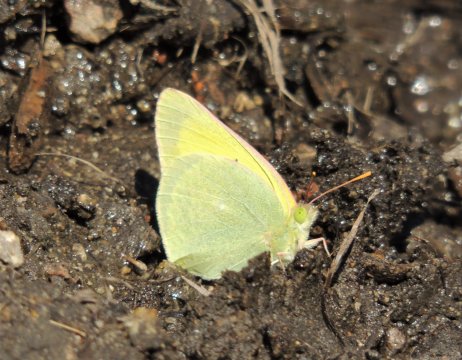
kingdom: Animalia
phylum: Arthropoda
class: Insecta
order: Lepidoptera
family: Pieridae
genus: Colias
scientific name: Colias alexandra
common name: Queen Alexandra's Sulphur
